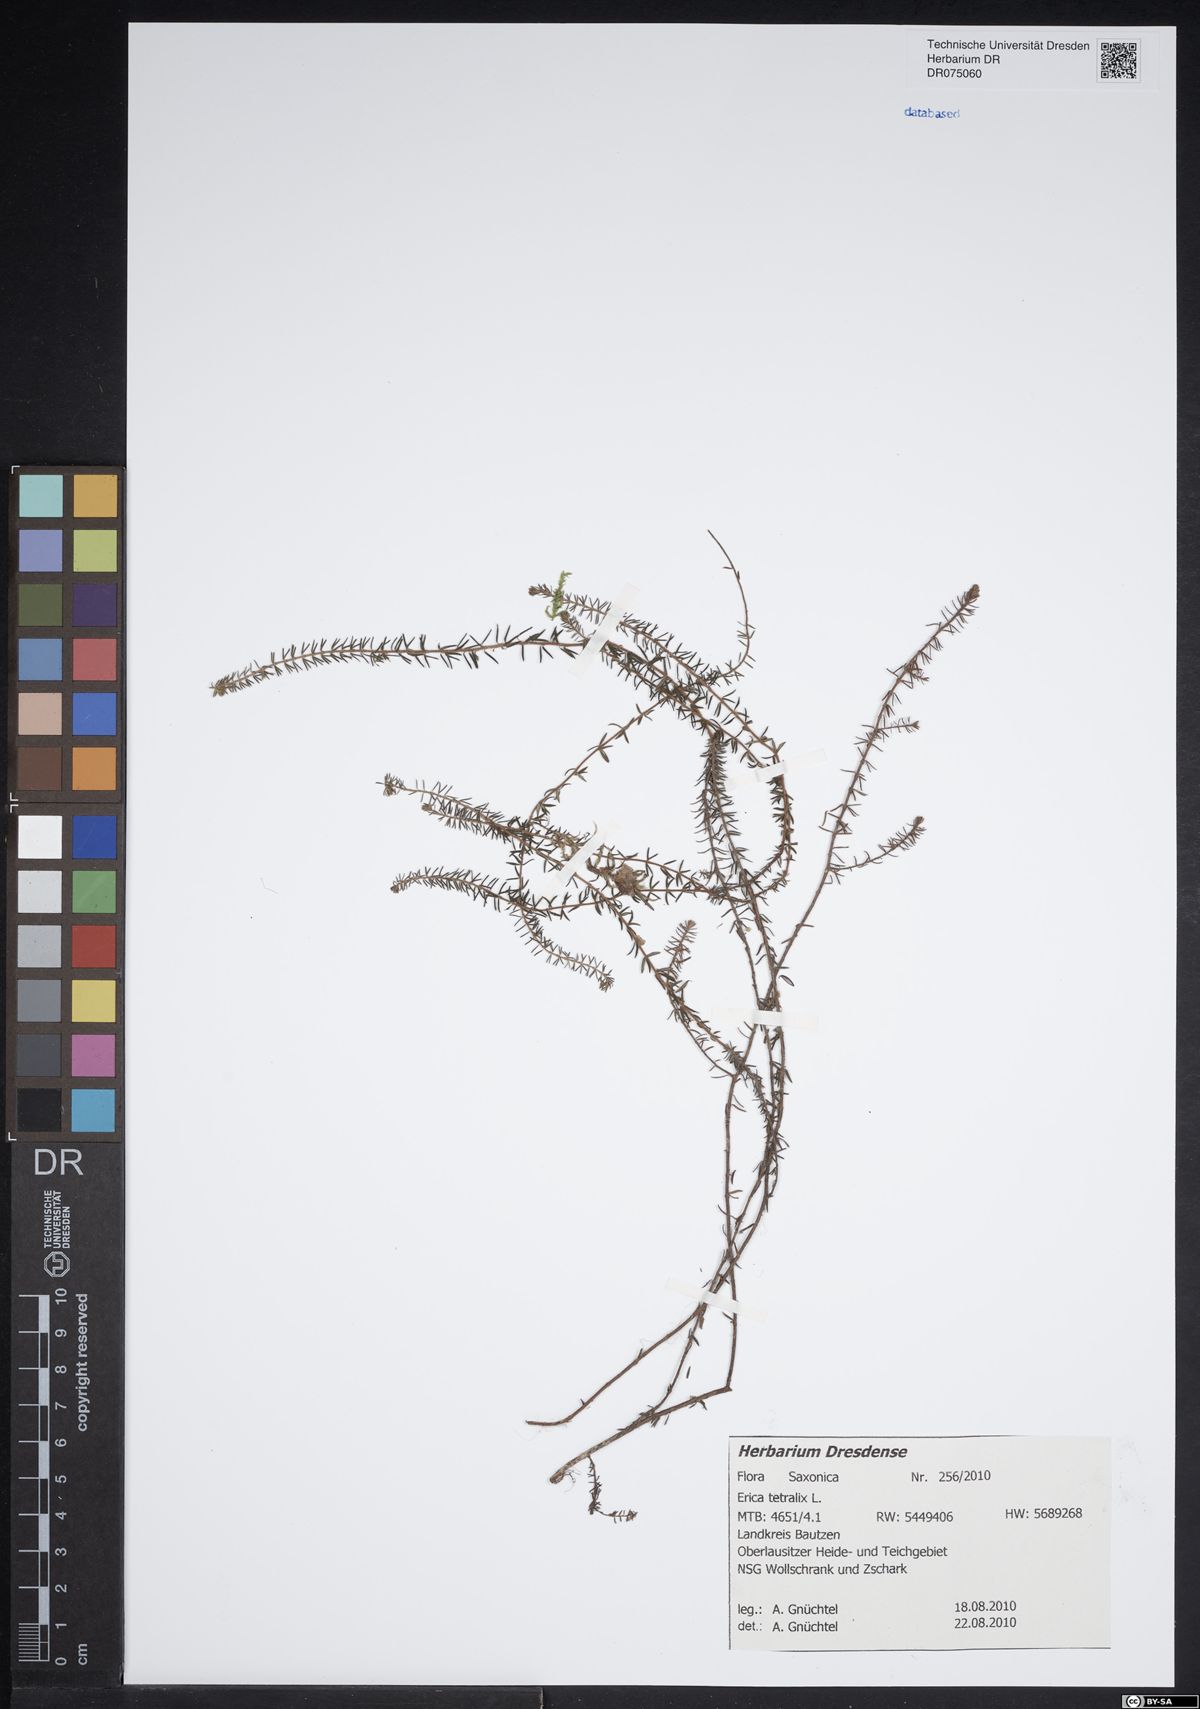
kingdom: Plantae
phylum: Tracheophyta
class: Magnoliopsida
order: Ericales
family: Ericaceae
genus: Erica
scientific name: Erica tetralix
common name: Cross-leaved heath
